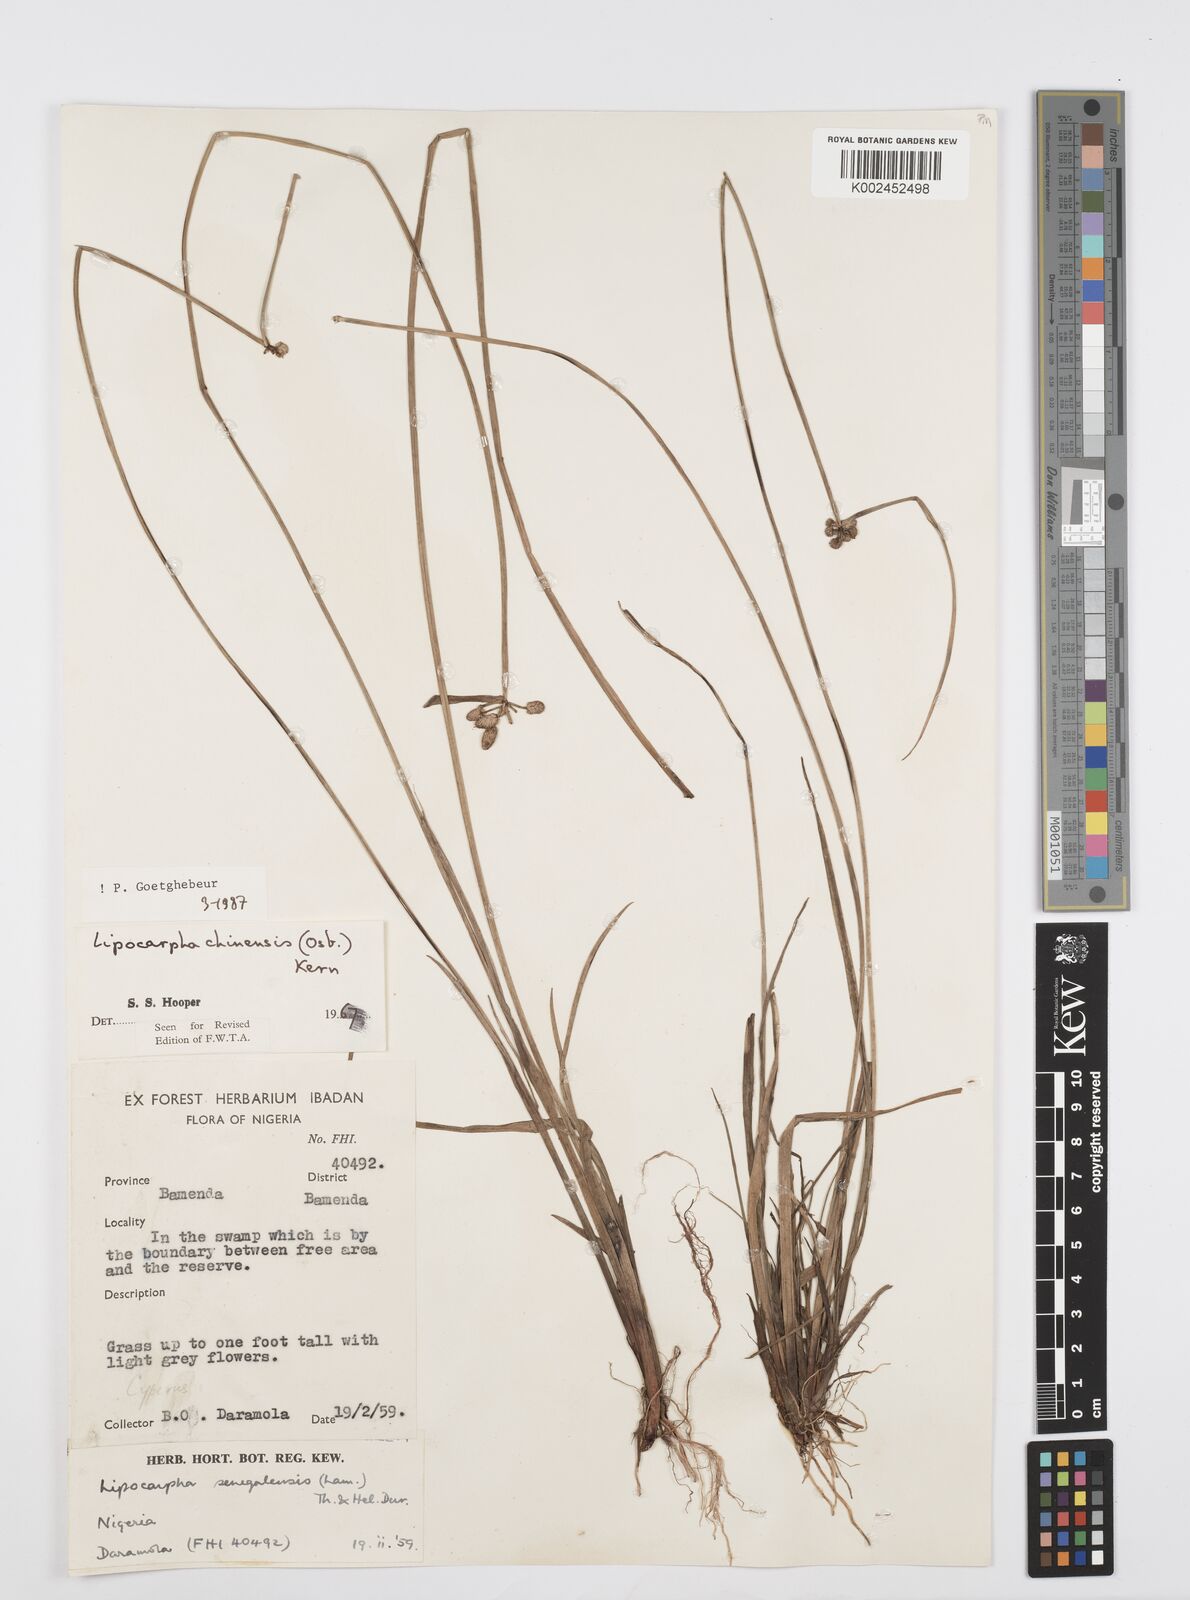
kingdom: Plantae
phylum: Tracheophyta
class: Liliopsida
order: Poales
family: Cyperaceae
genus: Cyperus
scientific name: Cyperus albescens
